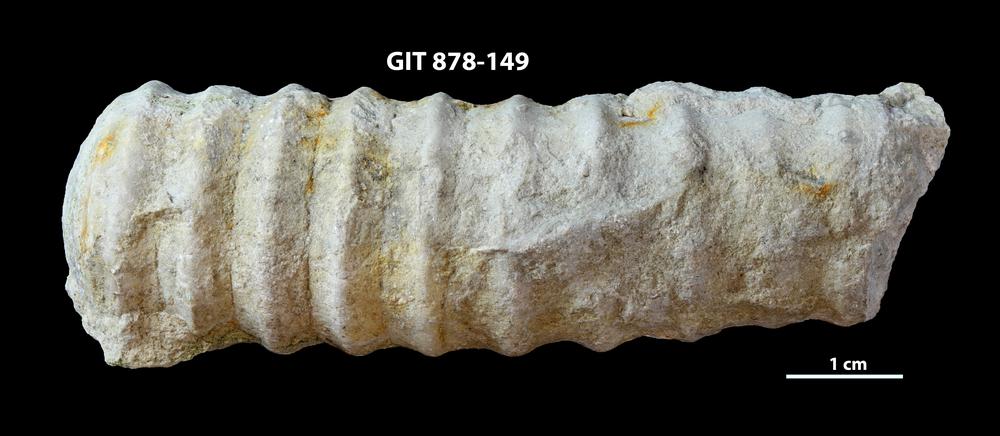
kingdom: Animalia
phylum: Mollusca
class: Cephalopoda
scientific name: Cephalopoda
